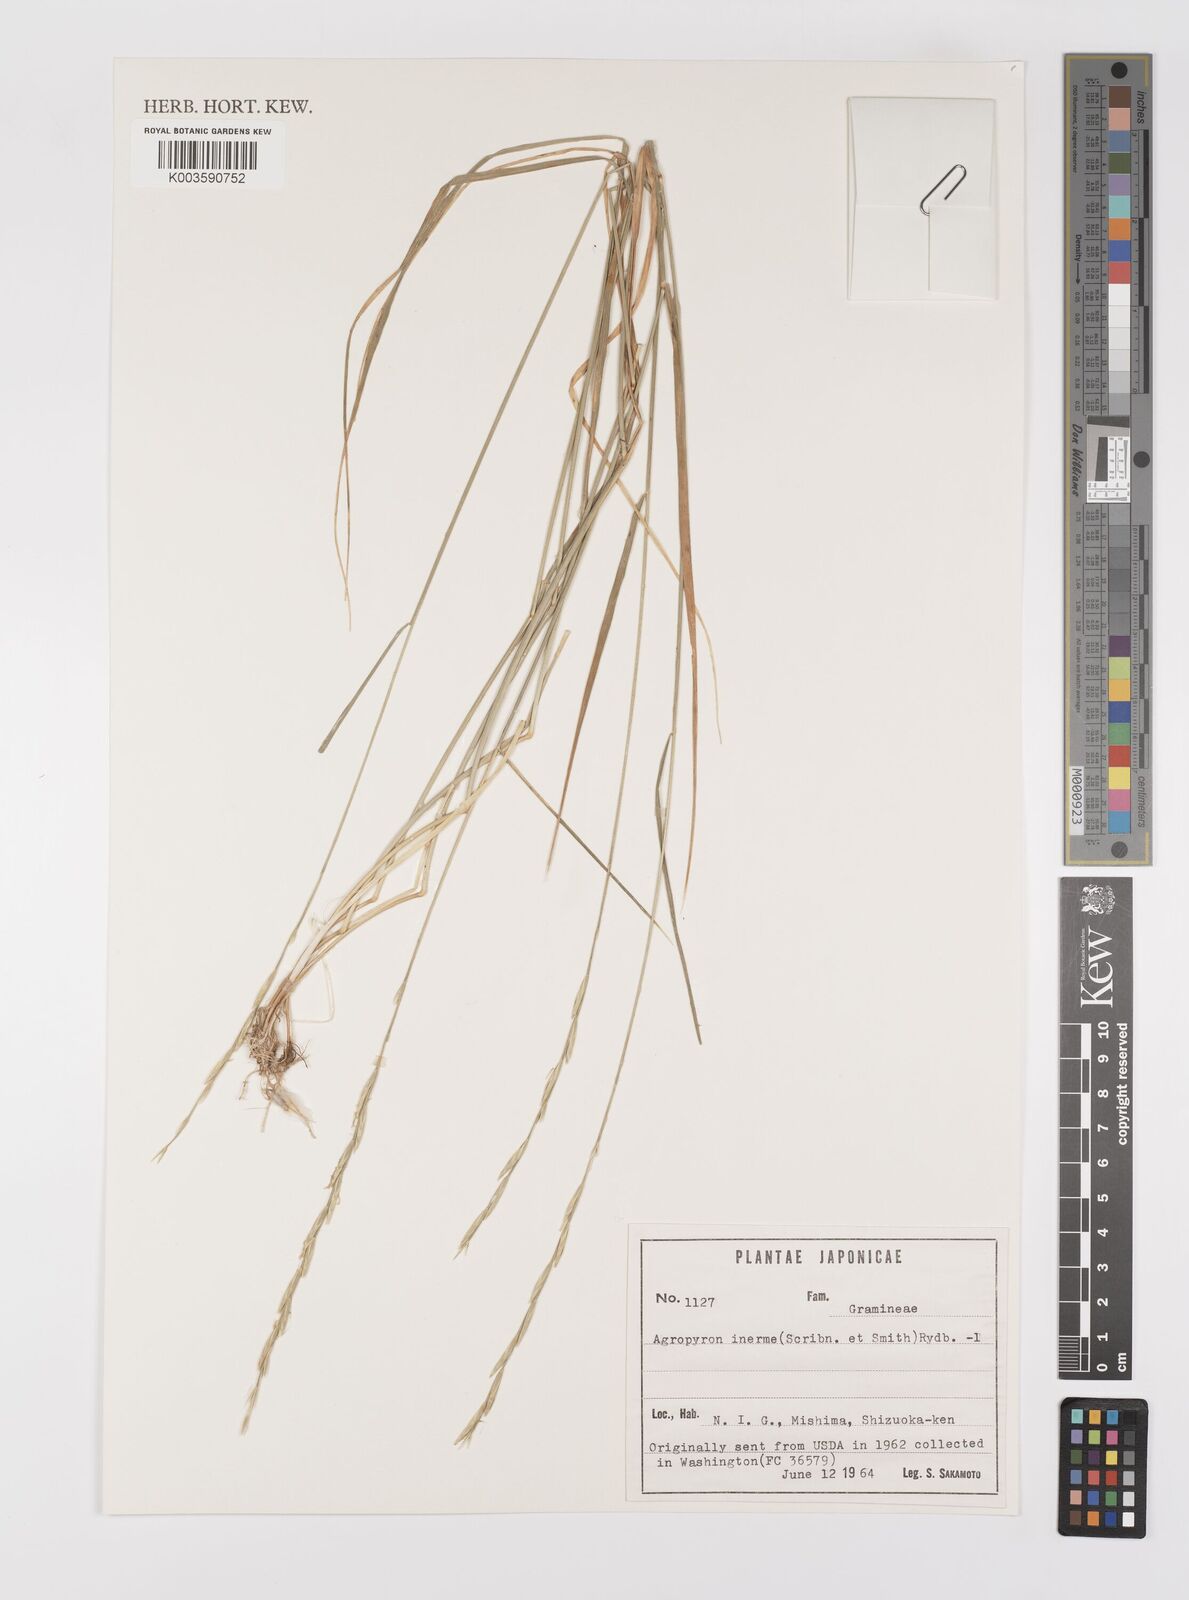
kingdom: Plantae
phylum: Tracheophyta
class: Liliopsida
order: Poales
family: Poaceae
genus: Pseudoroegneria
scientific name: Pseudoroegneria spicata
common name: Bluebunch wheatgrass
